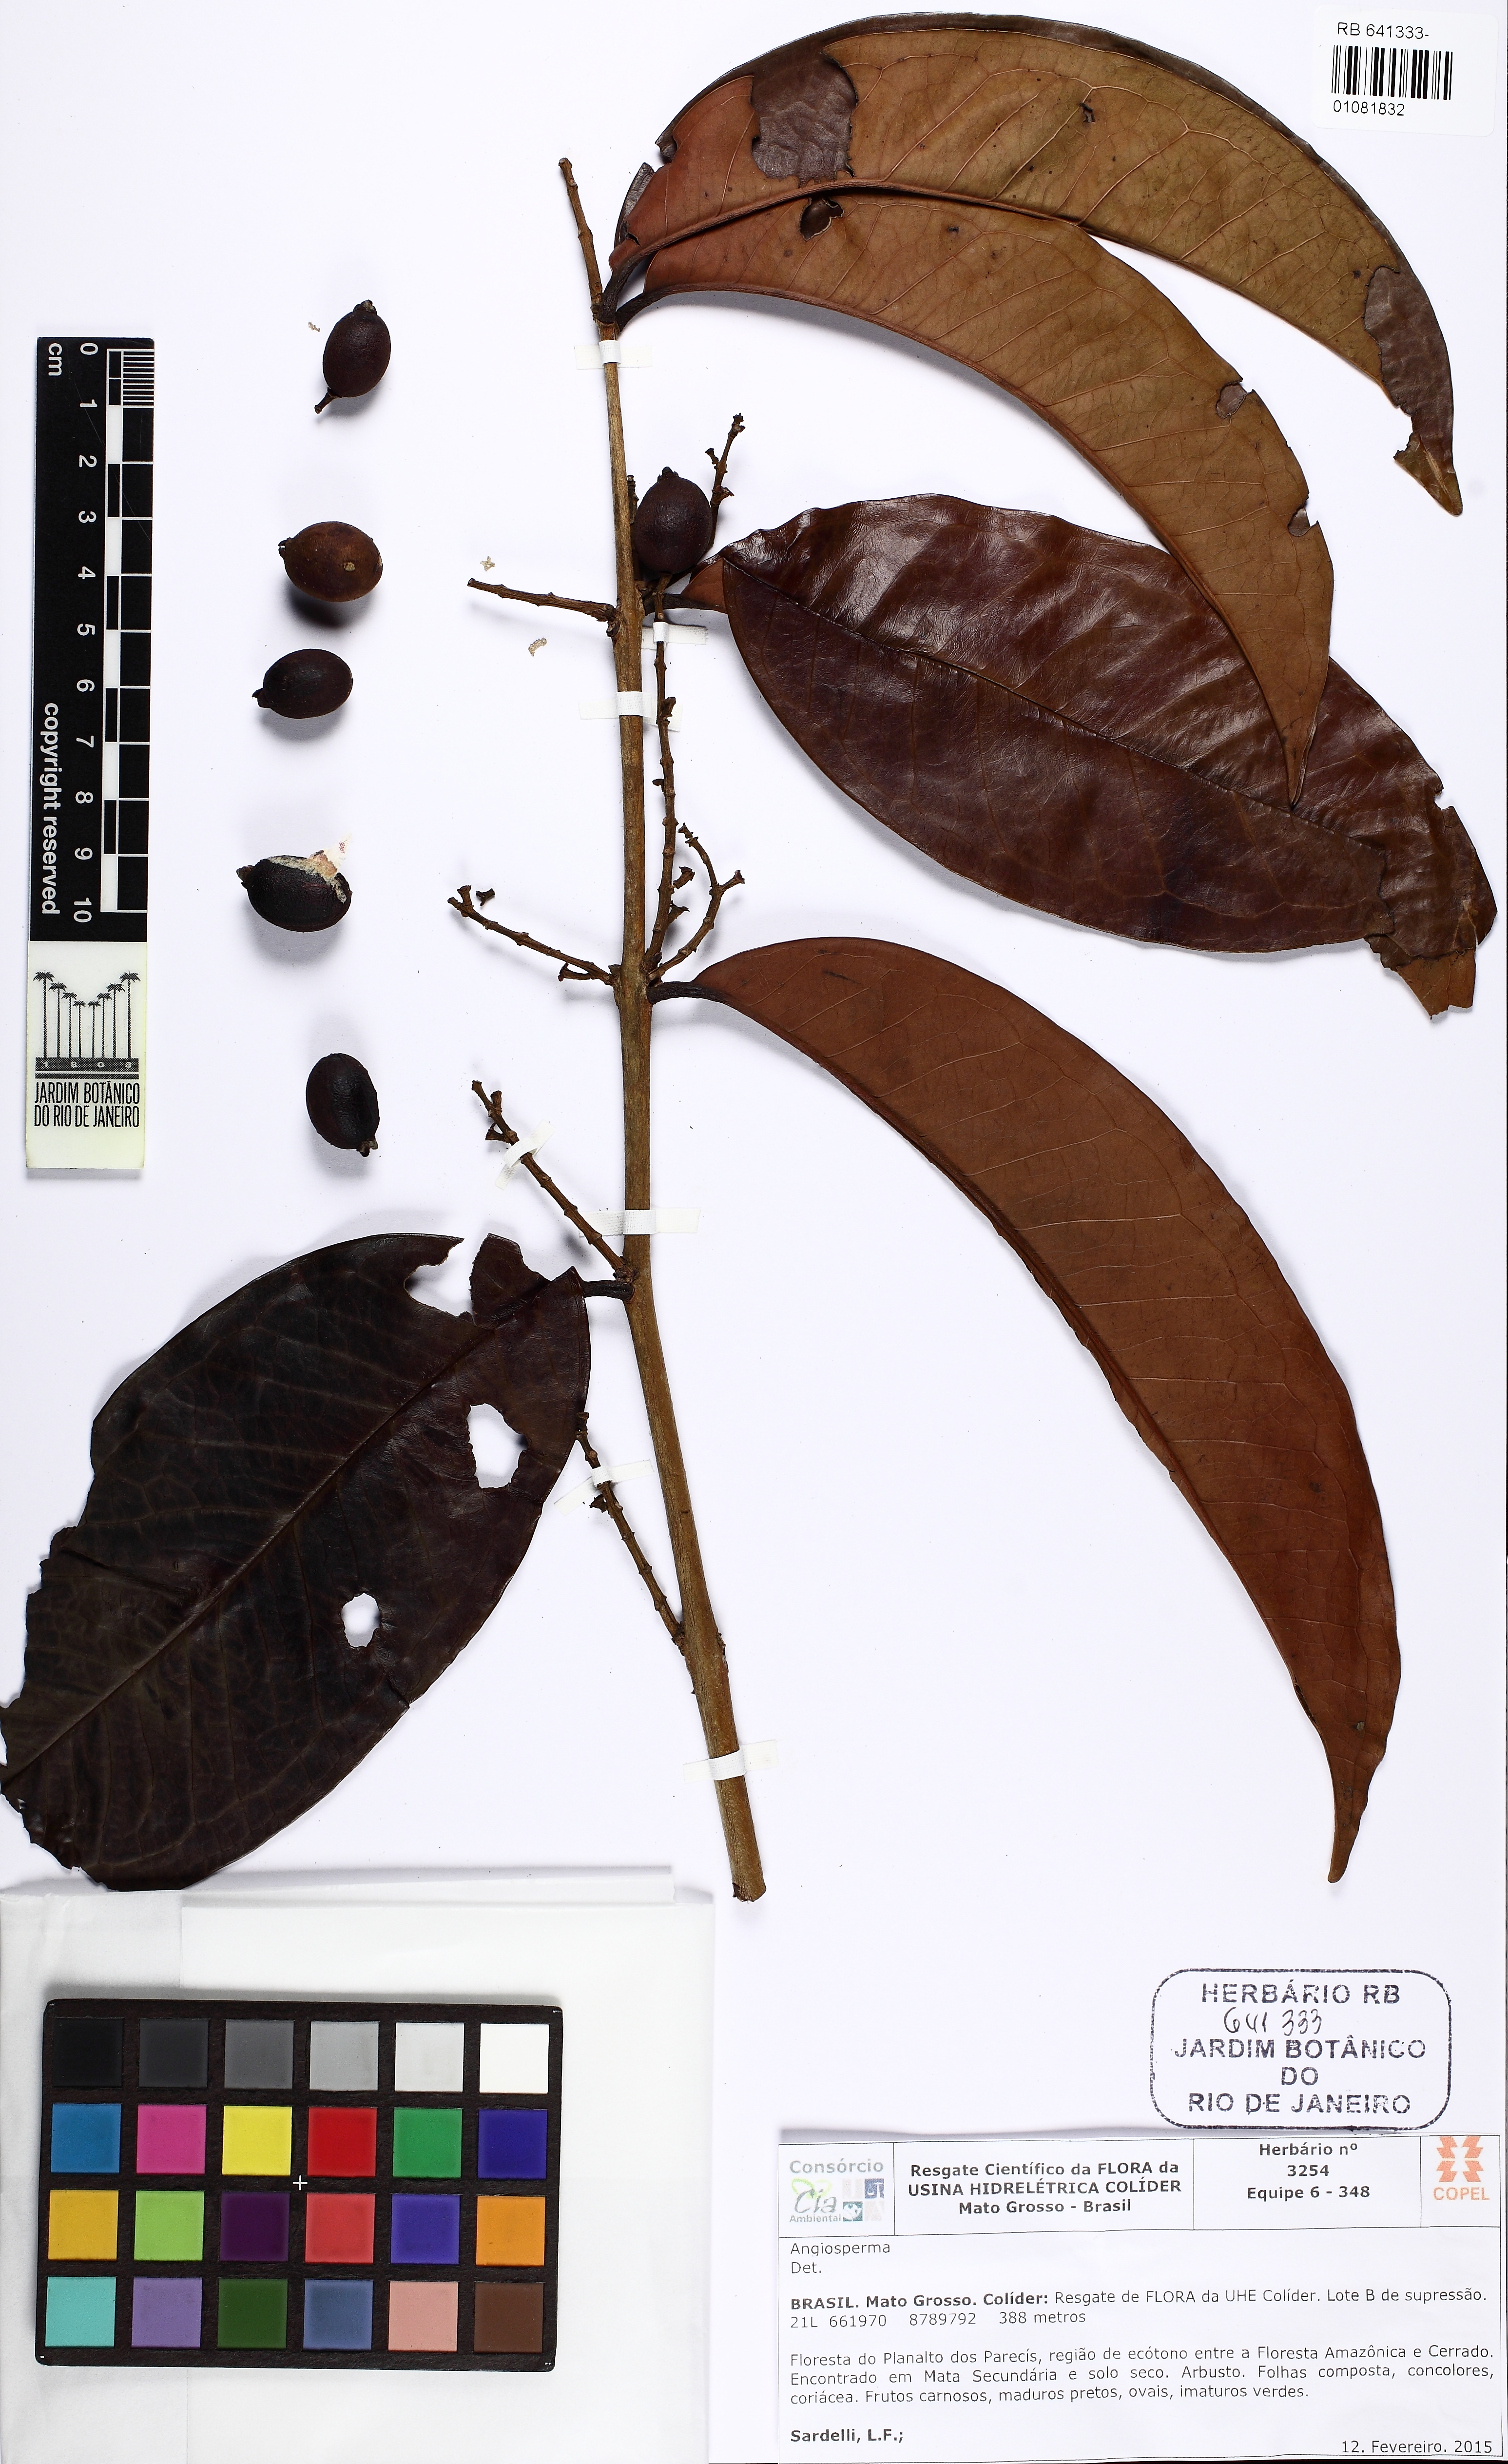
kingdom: Plantae
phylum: Tracheophyta
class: Magnoliopsida
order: Myrtales
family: Myrtaceae
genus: Eugenia
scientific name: Eugenia neomattogrossensis
